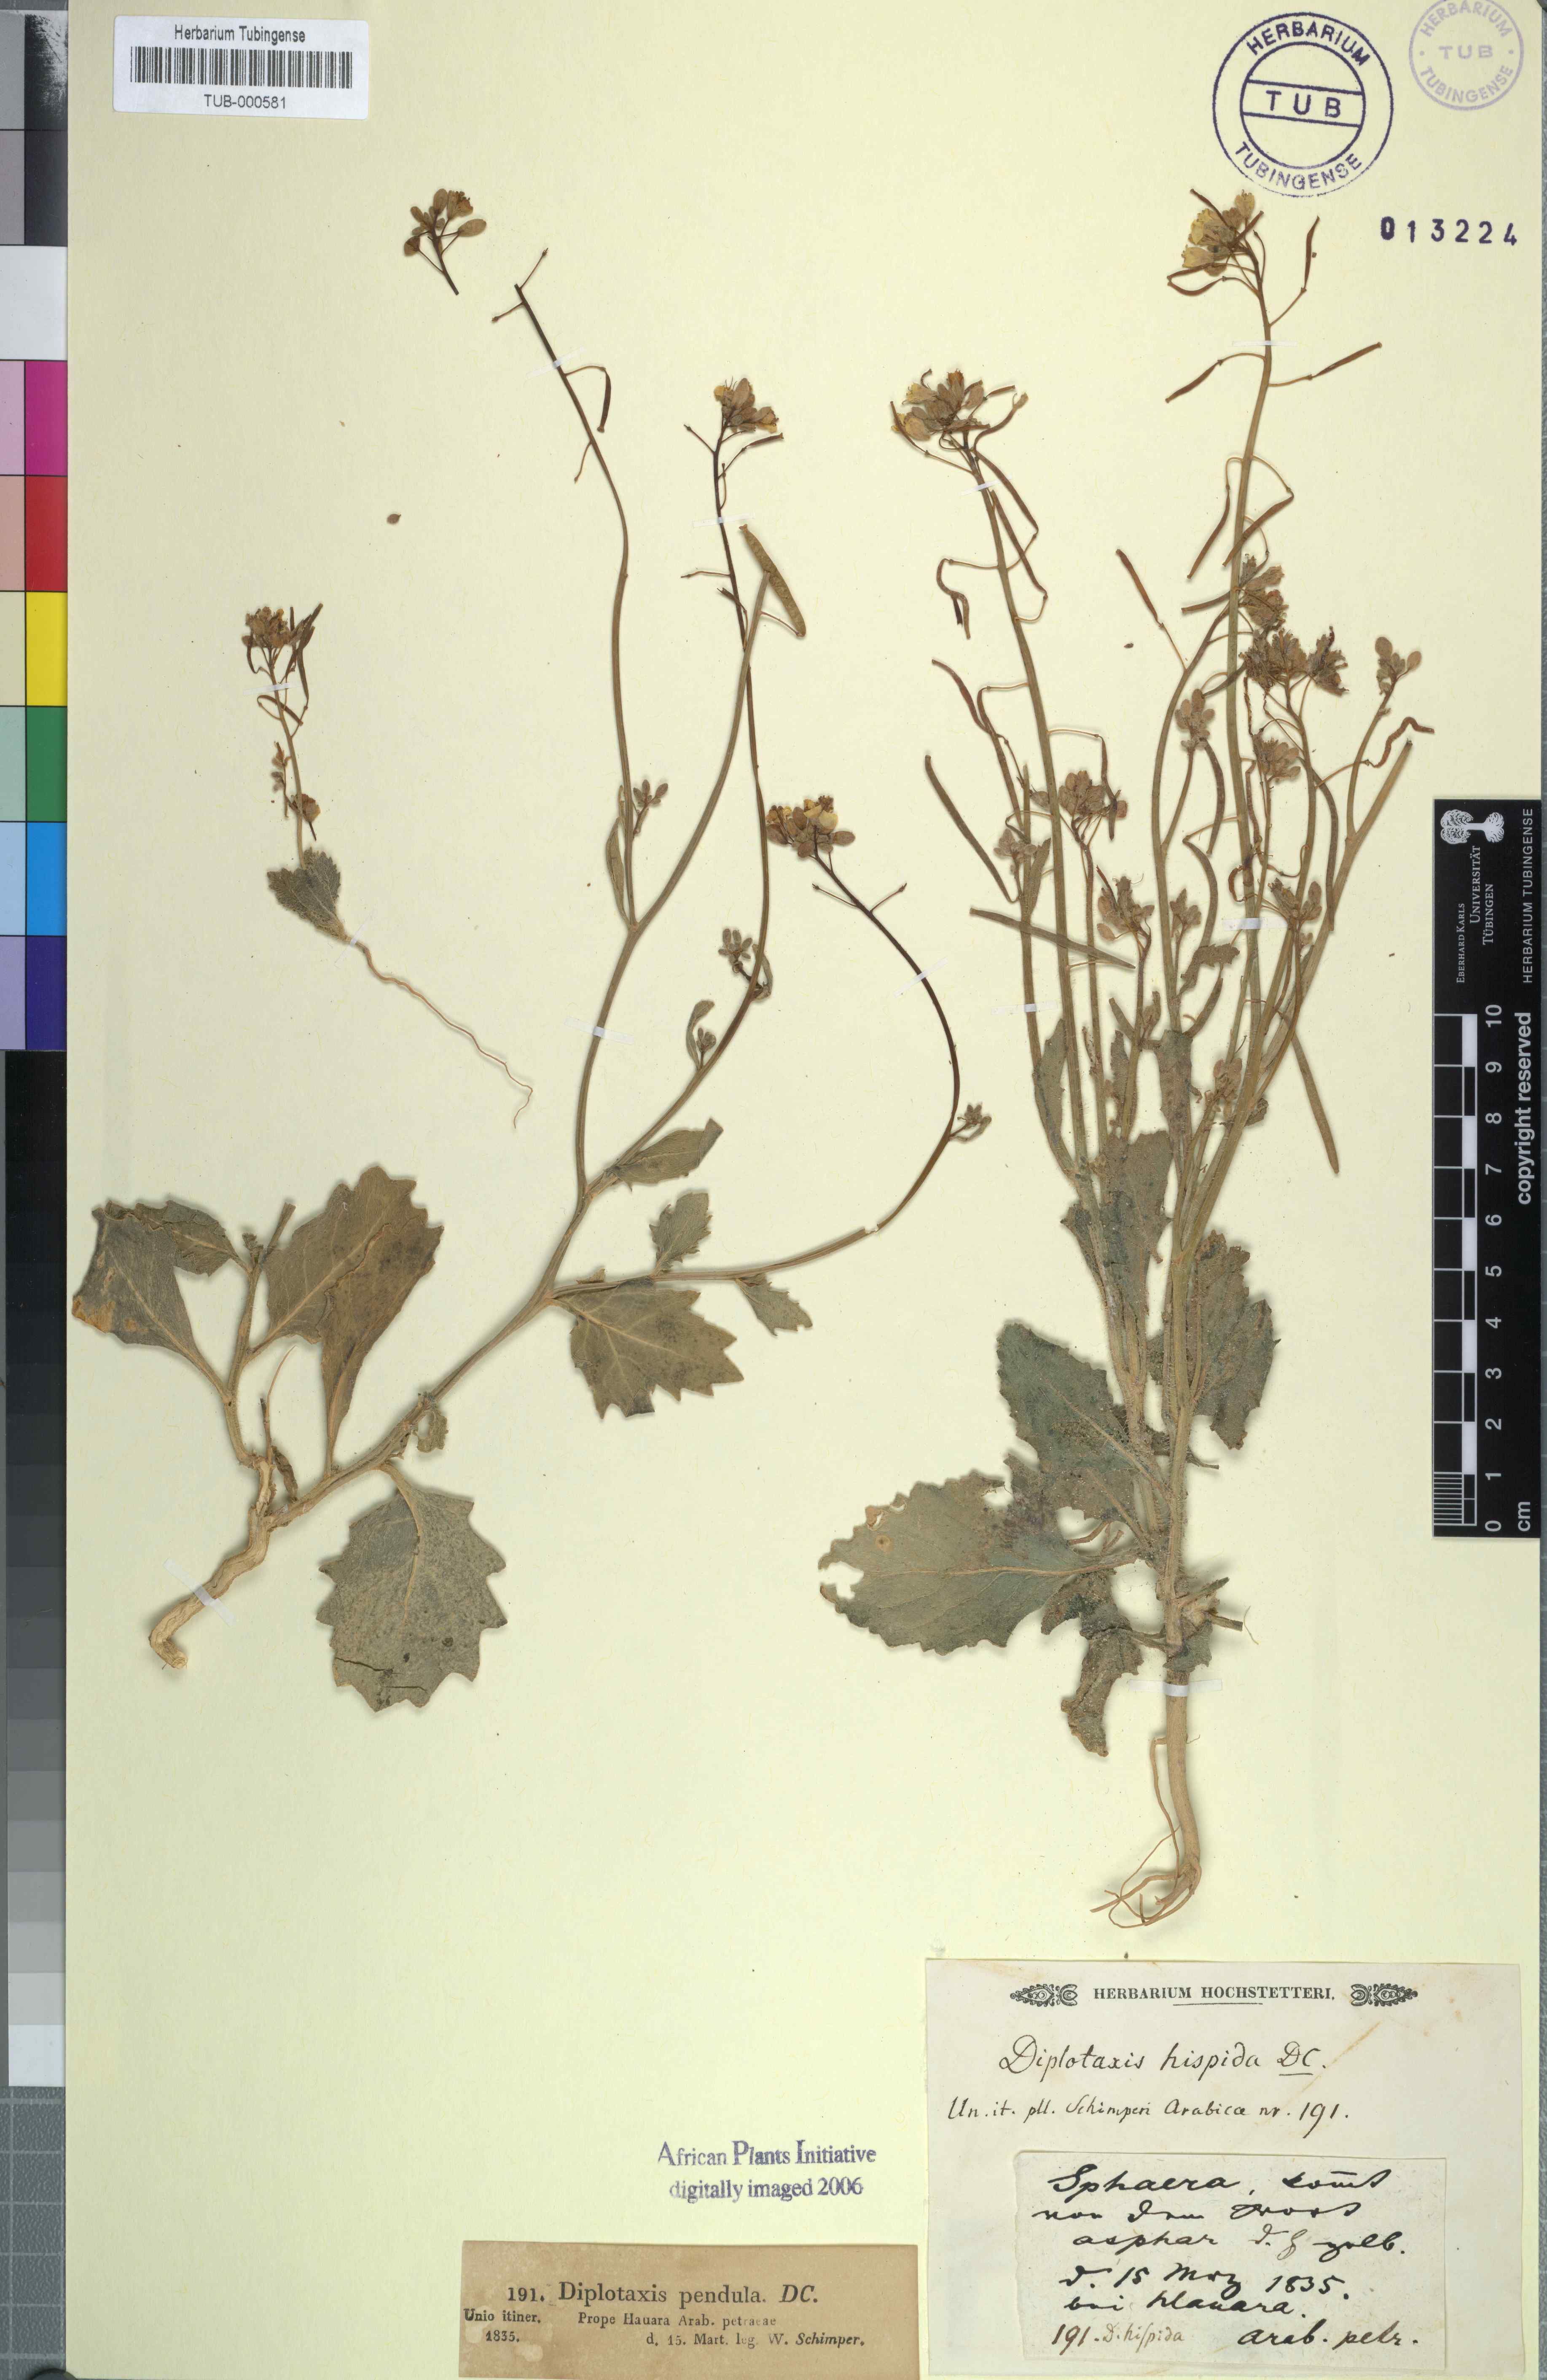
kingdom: Plantae
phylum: Tracheophyta
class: Magnoliopsida
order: Brassicales
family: Brassicaceae
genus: Diplotaxis
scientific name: Diplotaxis harra
